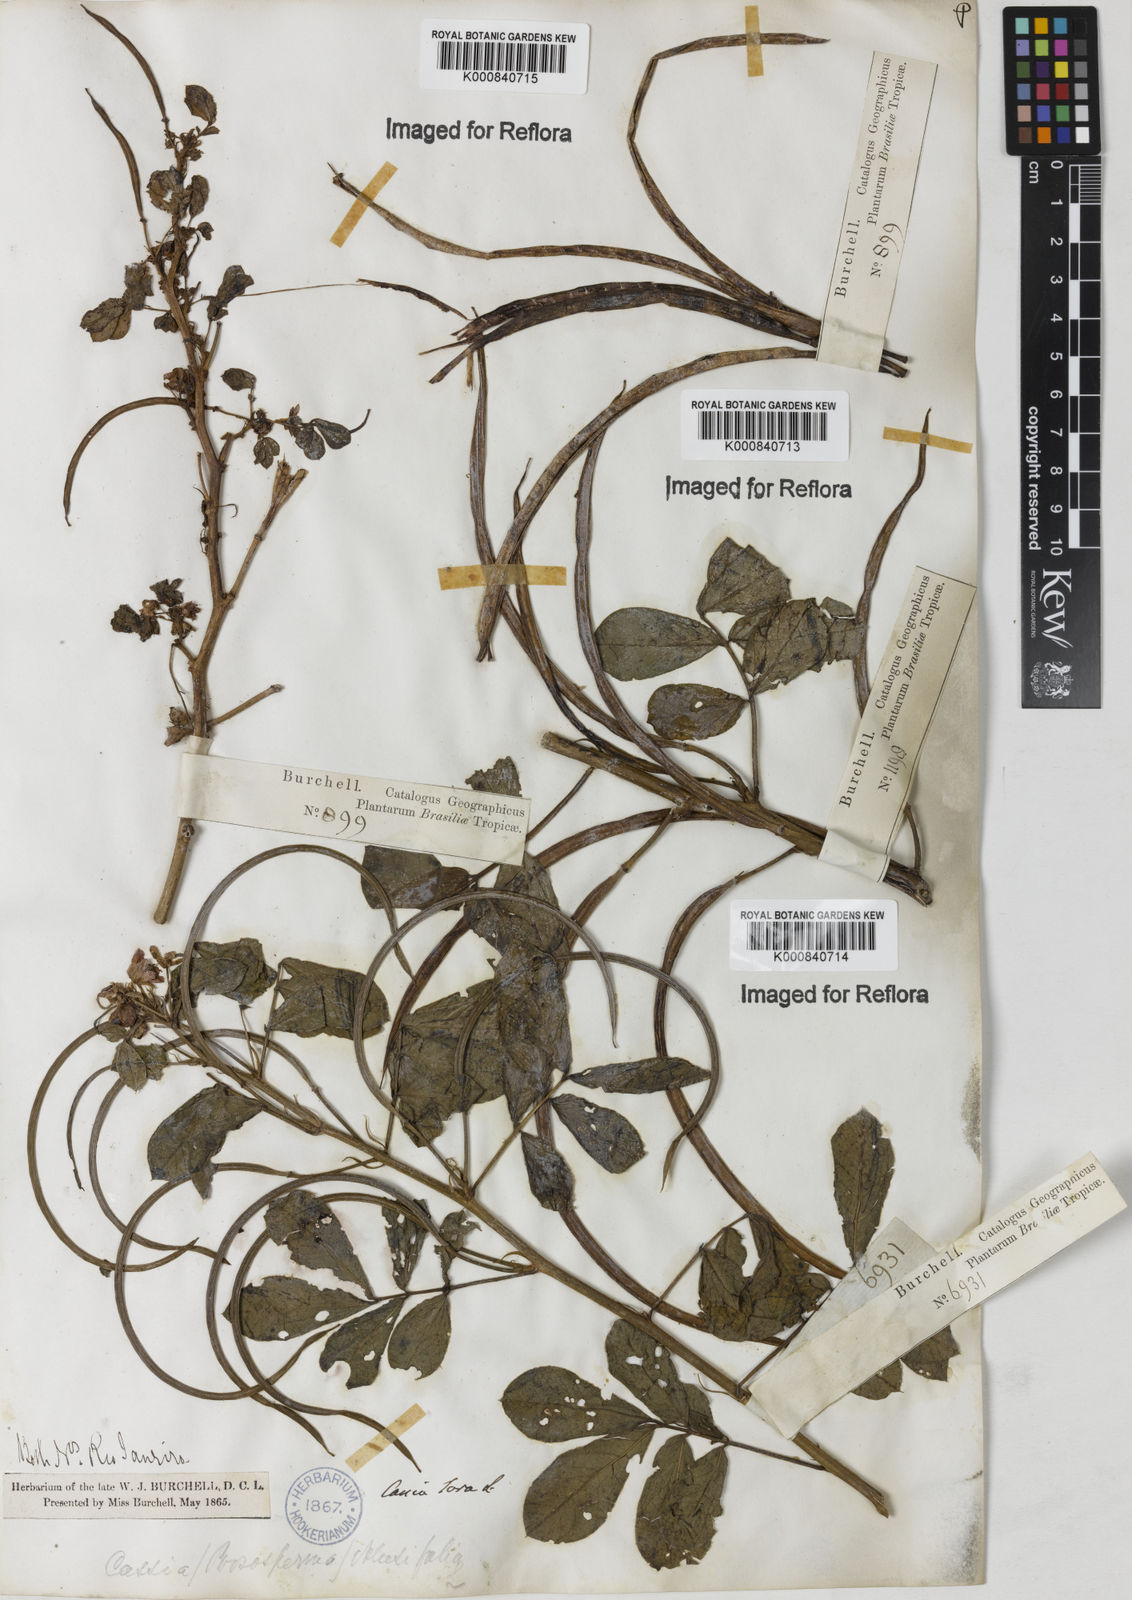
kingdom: Plantae
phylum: Tracheophyta
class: Magnoliopsida
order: Fabales
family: Fabaceae
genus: Senna
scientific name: Senna obtusifolia
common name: Java-bean
